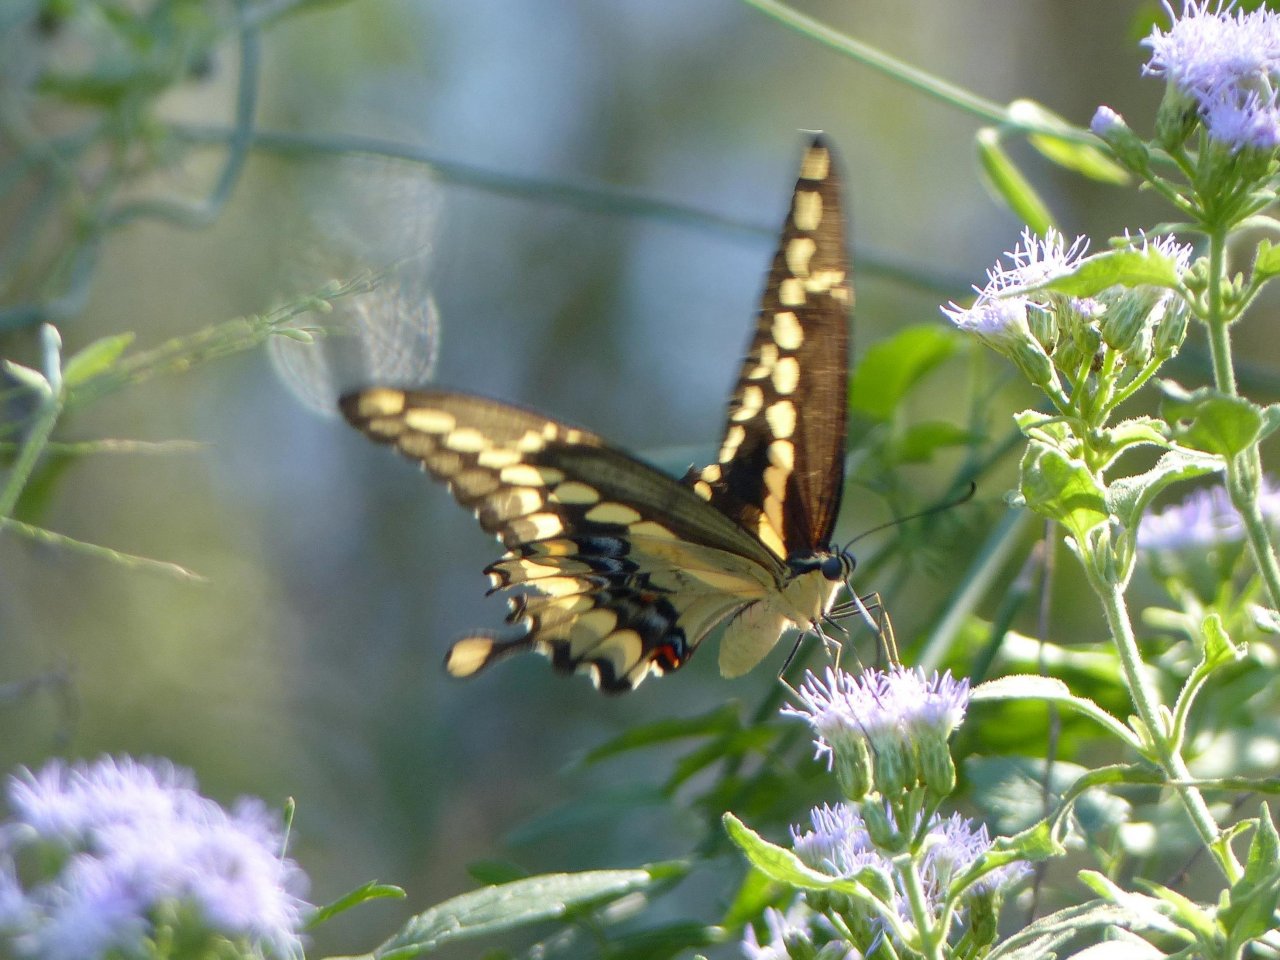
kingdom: Animalia
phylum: Arthropoda
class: Insecta
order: Lepidoptera
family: Papilionidae
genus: Papilio
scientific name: Papilio rumiko
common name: Western Giant Swallowtail
